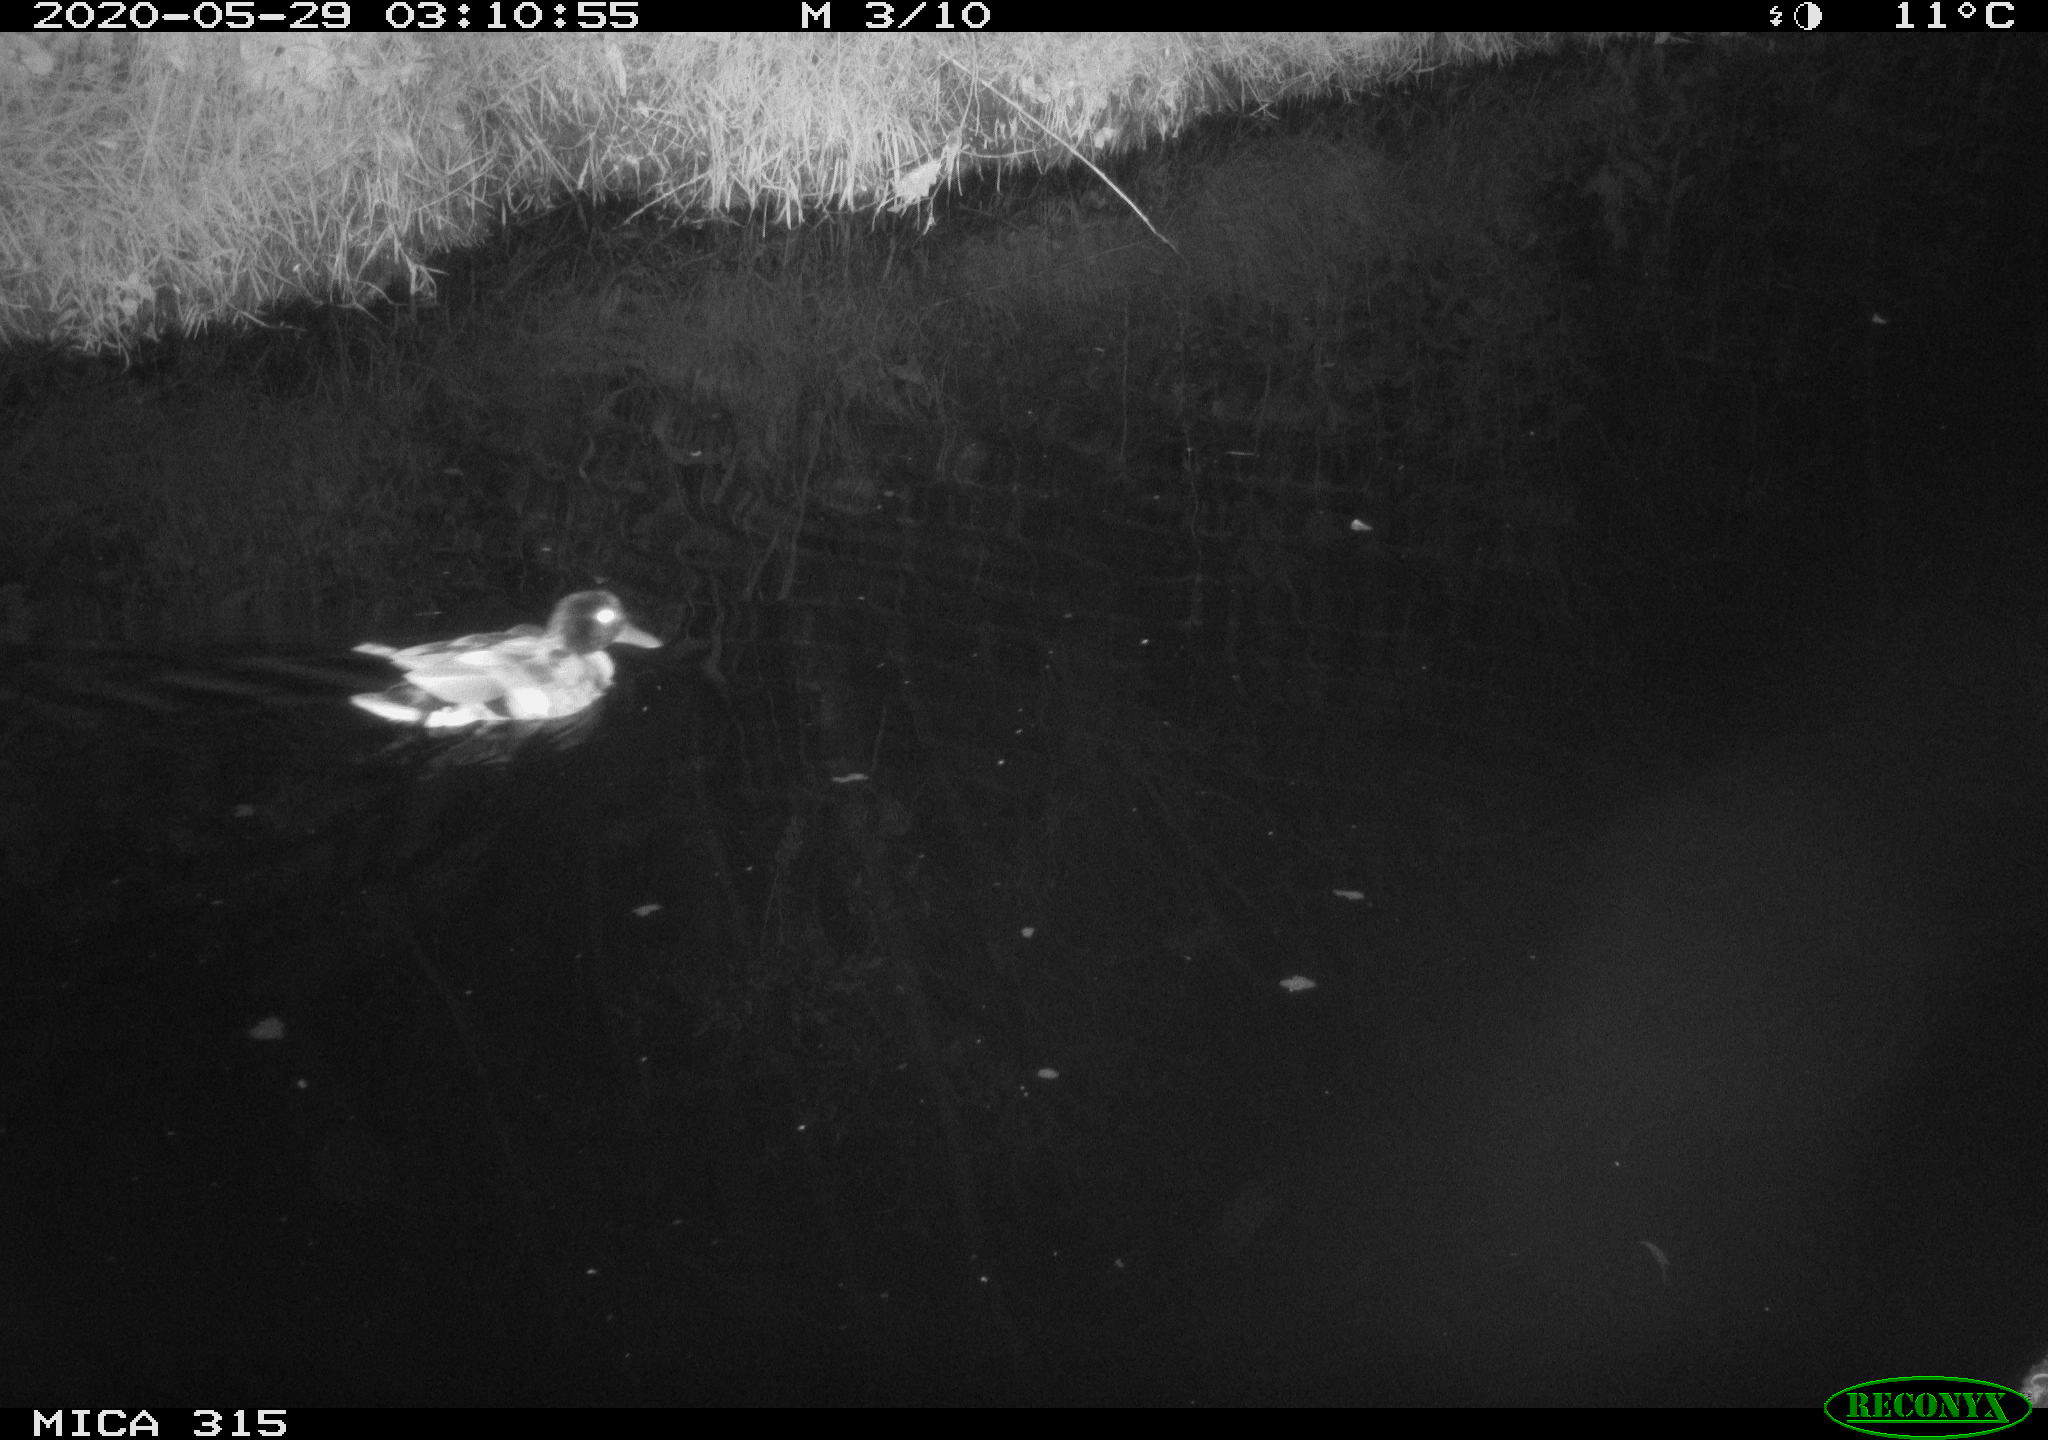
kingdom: Animalia
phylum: Chordata
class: Aves
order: Anseriformes
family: Anatidae
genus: Anas
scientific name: Anas platyrhynchos
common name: Mallard
